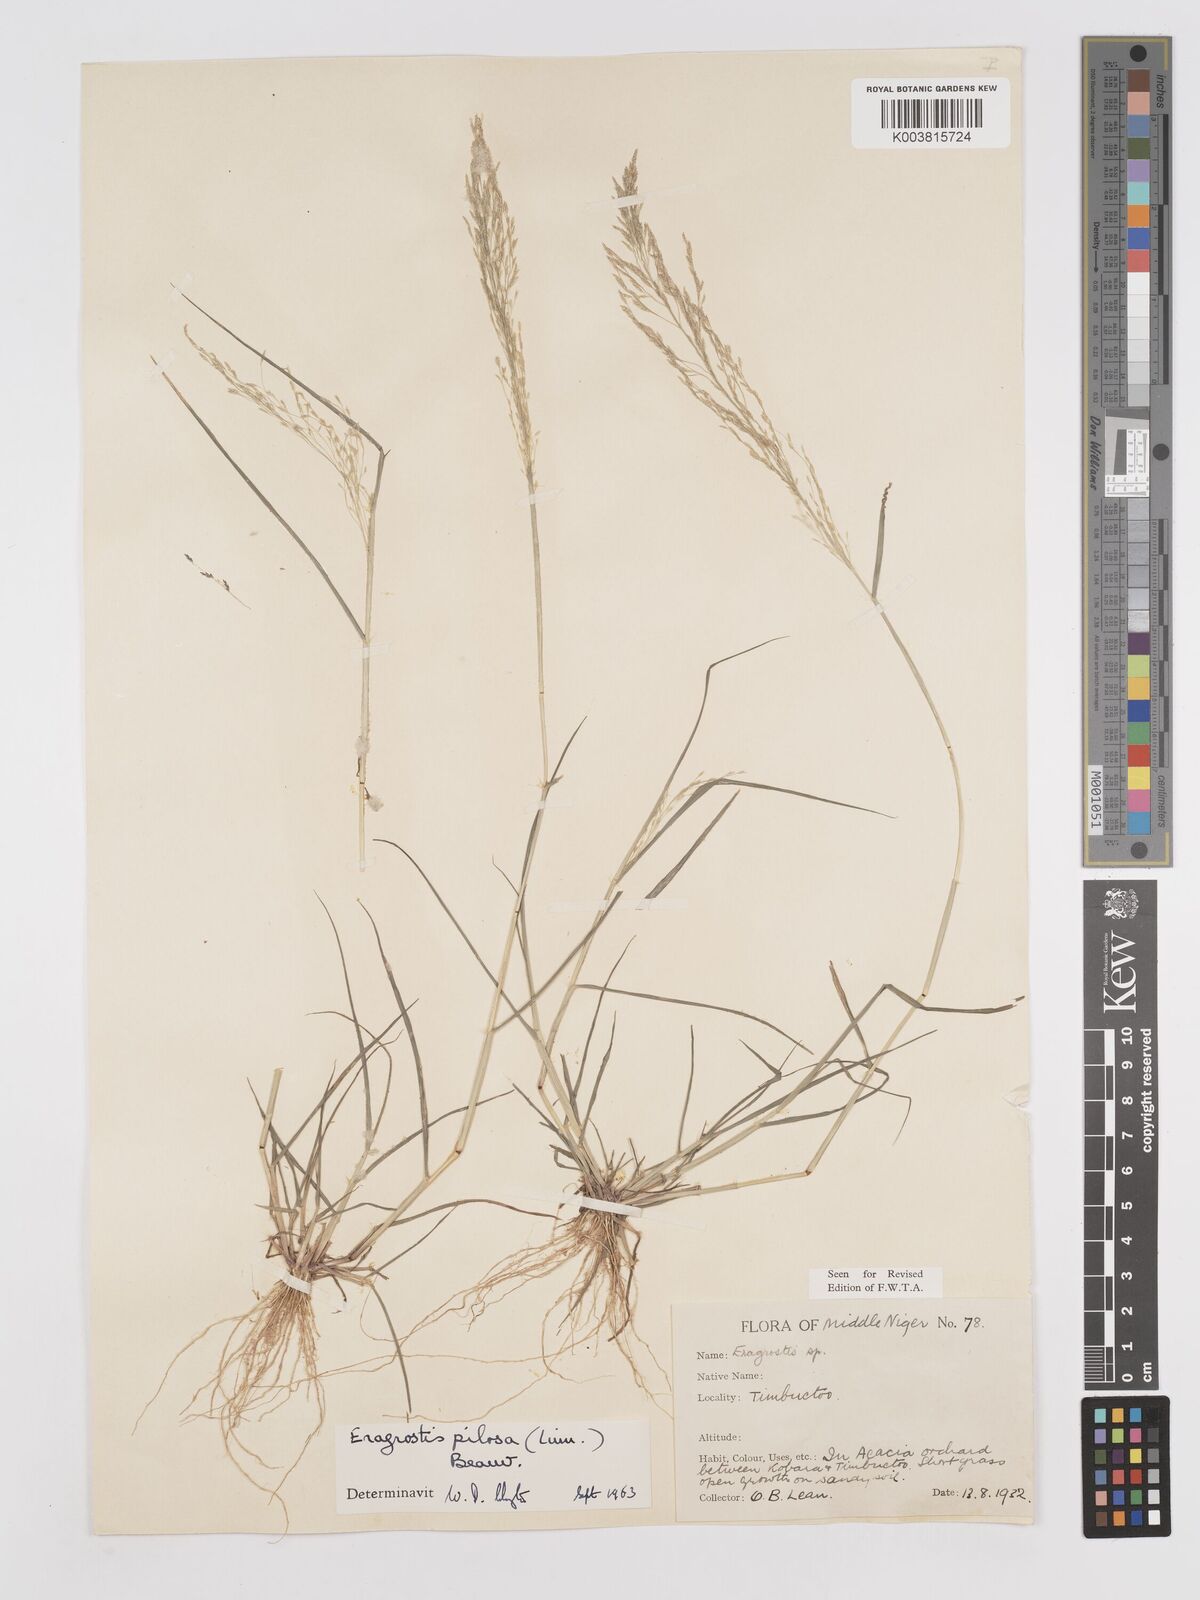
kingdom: Plantae
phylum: Tracheophyta
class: Liliopsida
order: Poales
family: Poaceae
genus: Eragrostis
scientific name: Eragrostis pilosa
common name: Indian lovegrass
